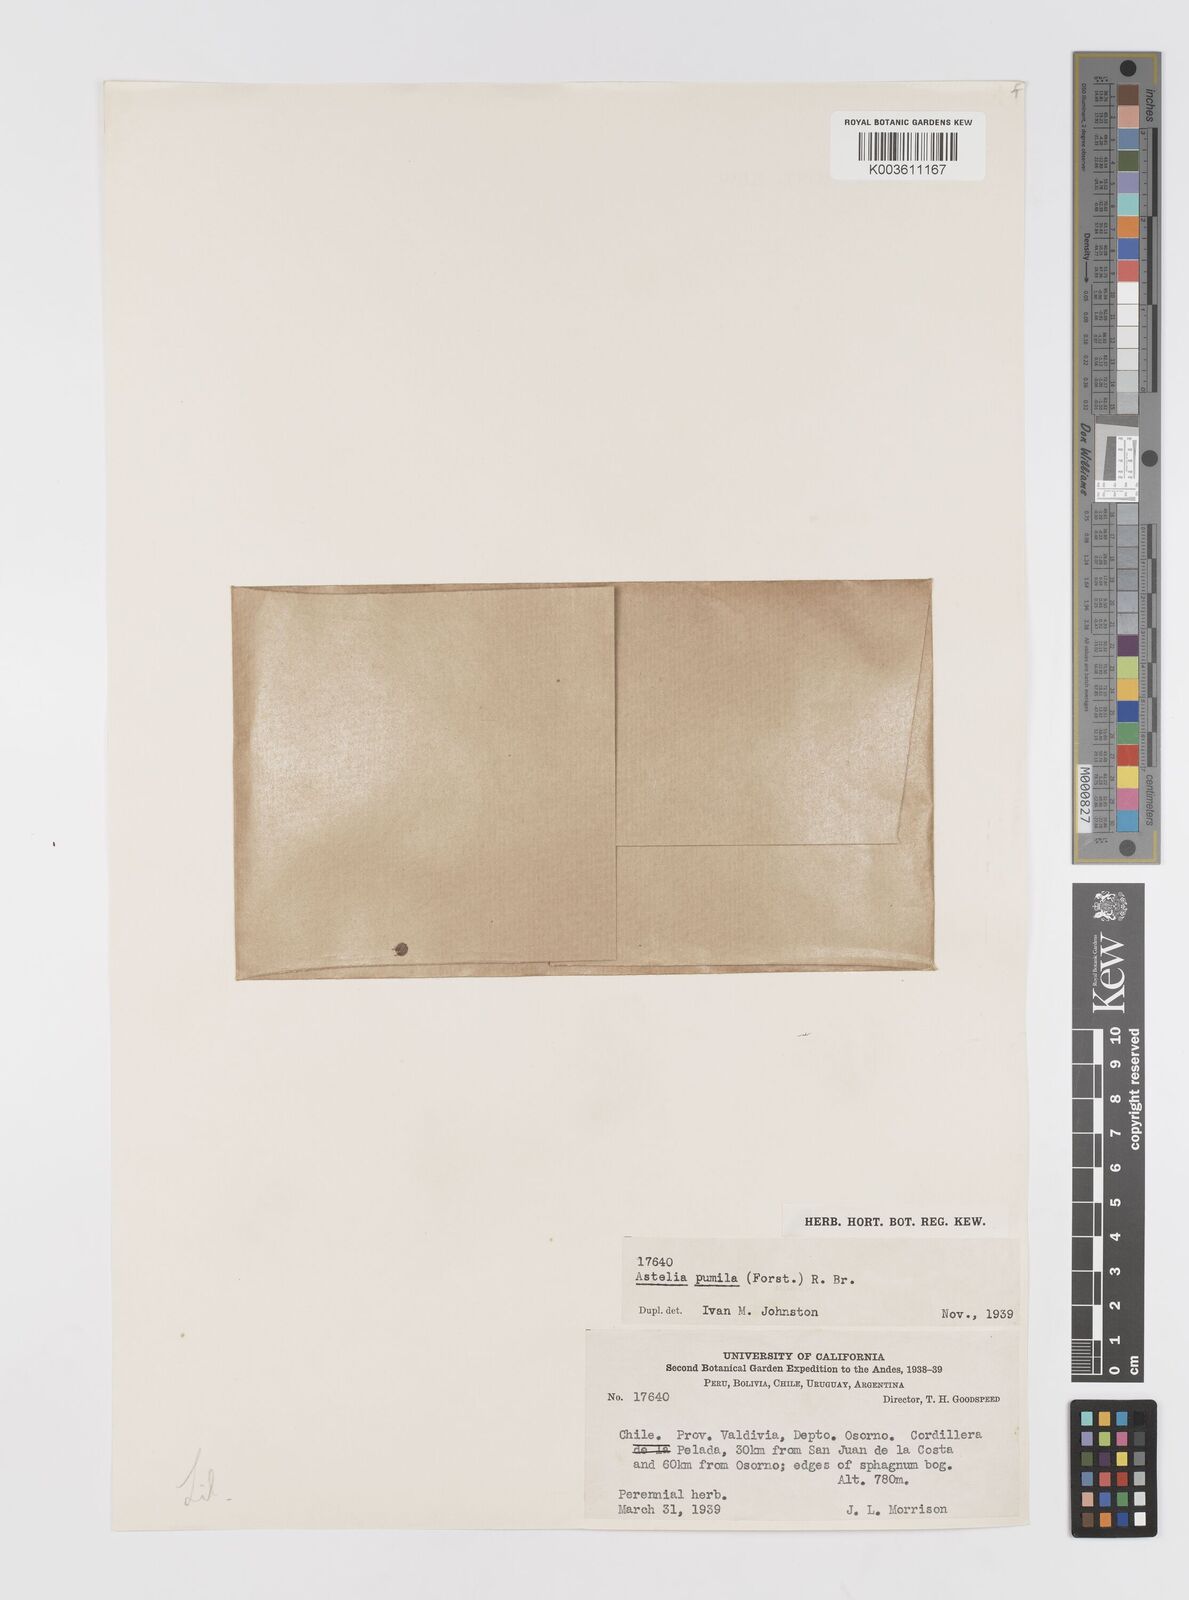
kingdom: Plantae
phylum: Tracheophyta
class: Liliopsida
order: Asparagales
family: Asteliaceae
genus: Astelia
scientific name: Astelia pumila
